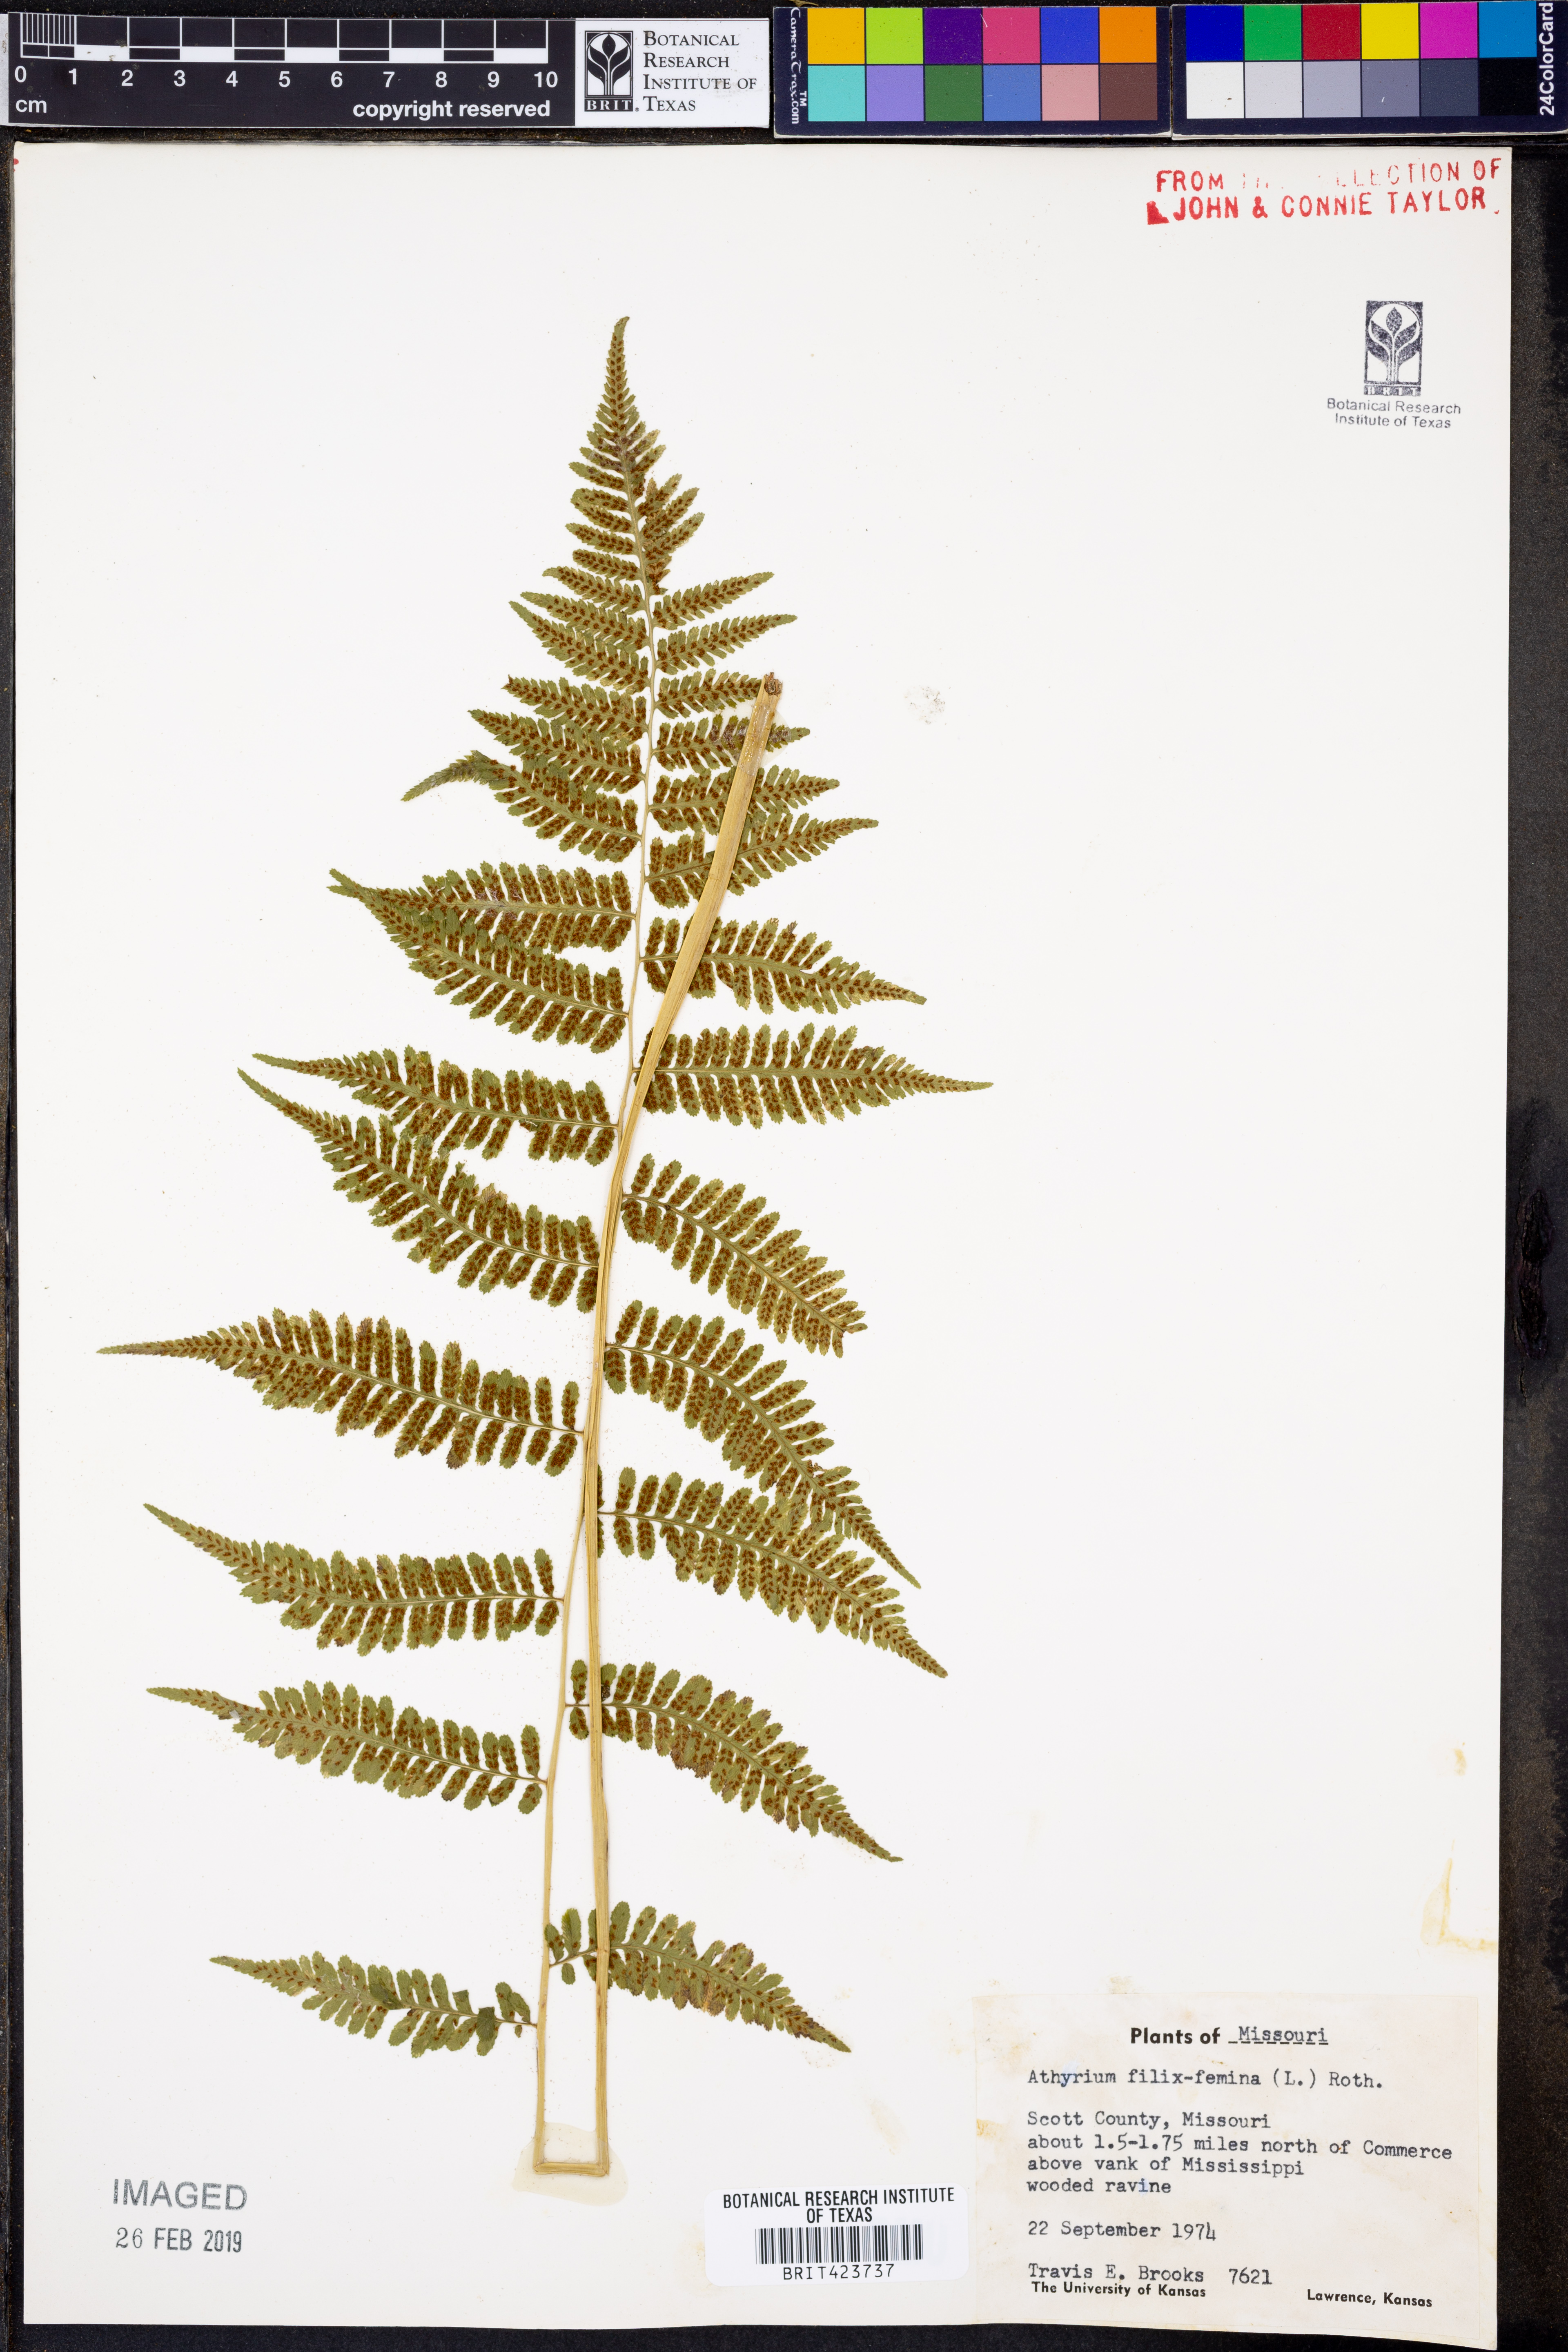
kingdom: Plantae
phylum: Tracheophyta
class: Polypodiopsida
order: Polypodiales
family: Athyriaceae
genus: Athyrium
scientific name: Athyrium filix-femina
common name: Lady fern
